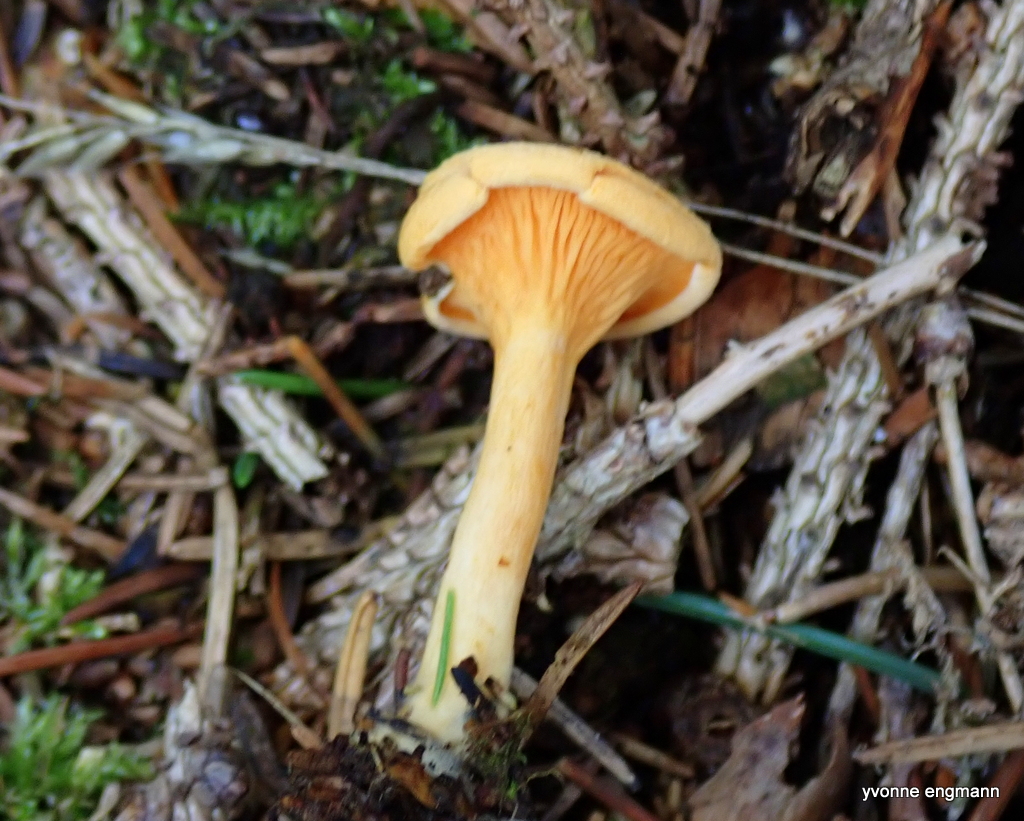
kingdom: Fungi
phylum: Basidiomycota
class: Agaricomycetes
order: Boletales
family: Hygrophoropsidaceae
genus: Hygrophoropsis
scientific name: Hygrophoropsis aurantiaca
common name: almindelig orangekantarel
